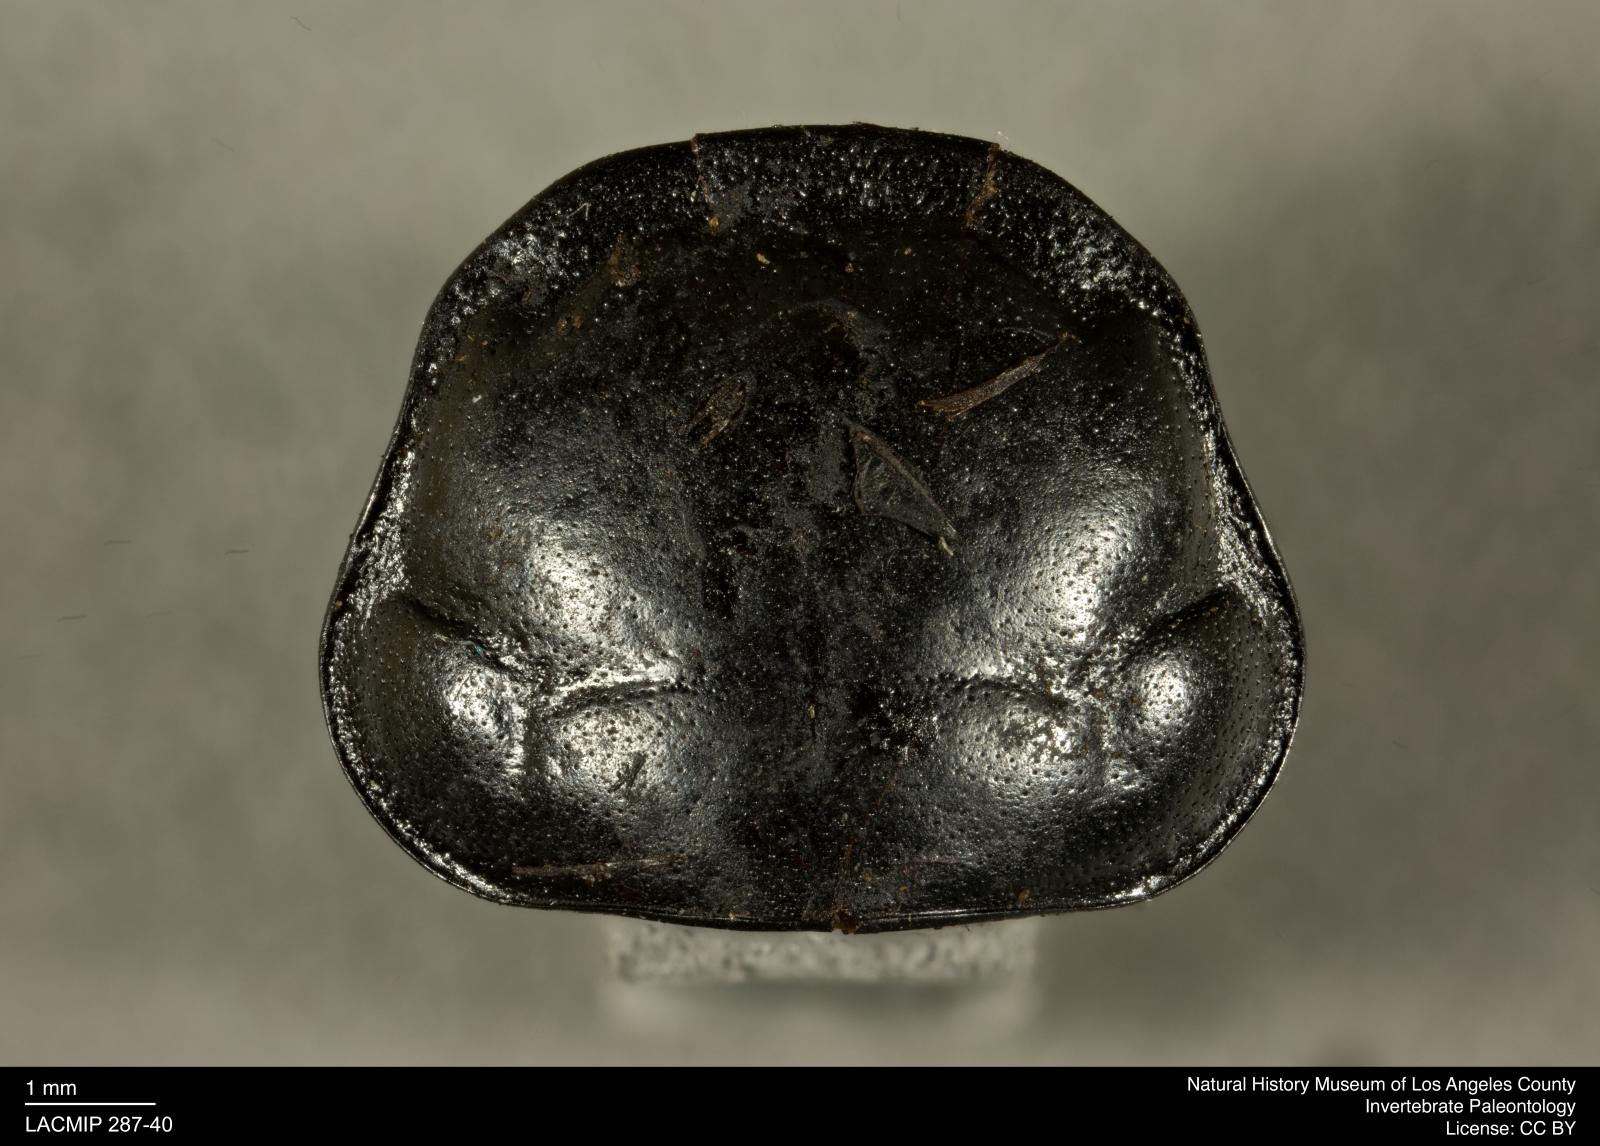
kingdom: Animalia
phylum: Arthropoda
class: Insecta
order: Coleoptera
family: Staphylinidae
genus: Nicrophorus
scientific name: Nicrophorus marginatus
